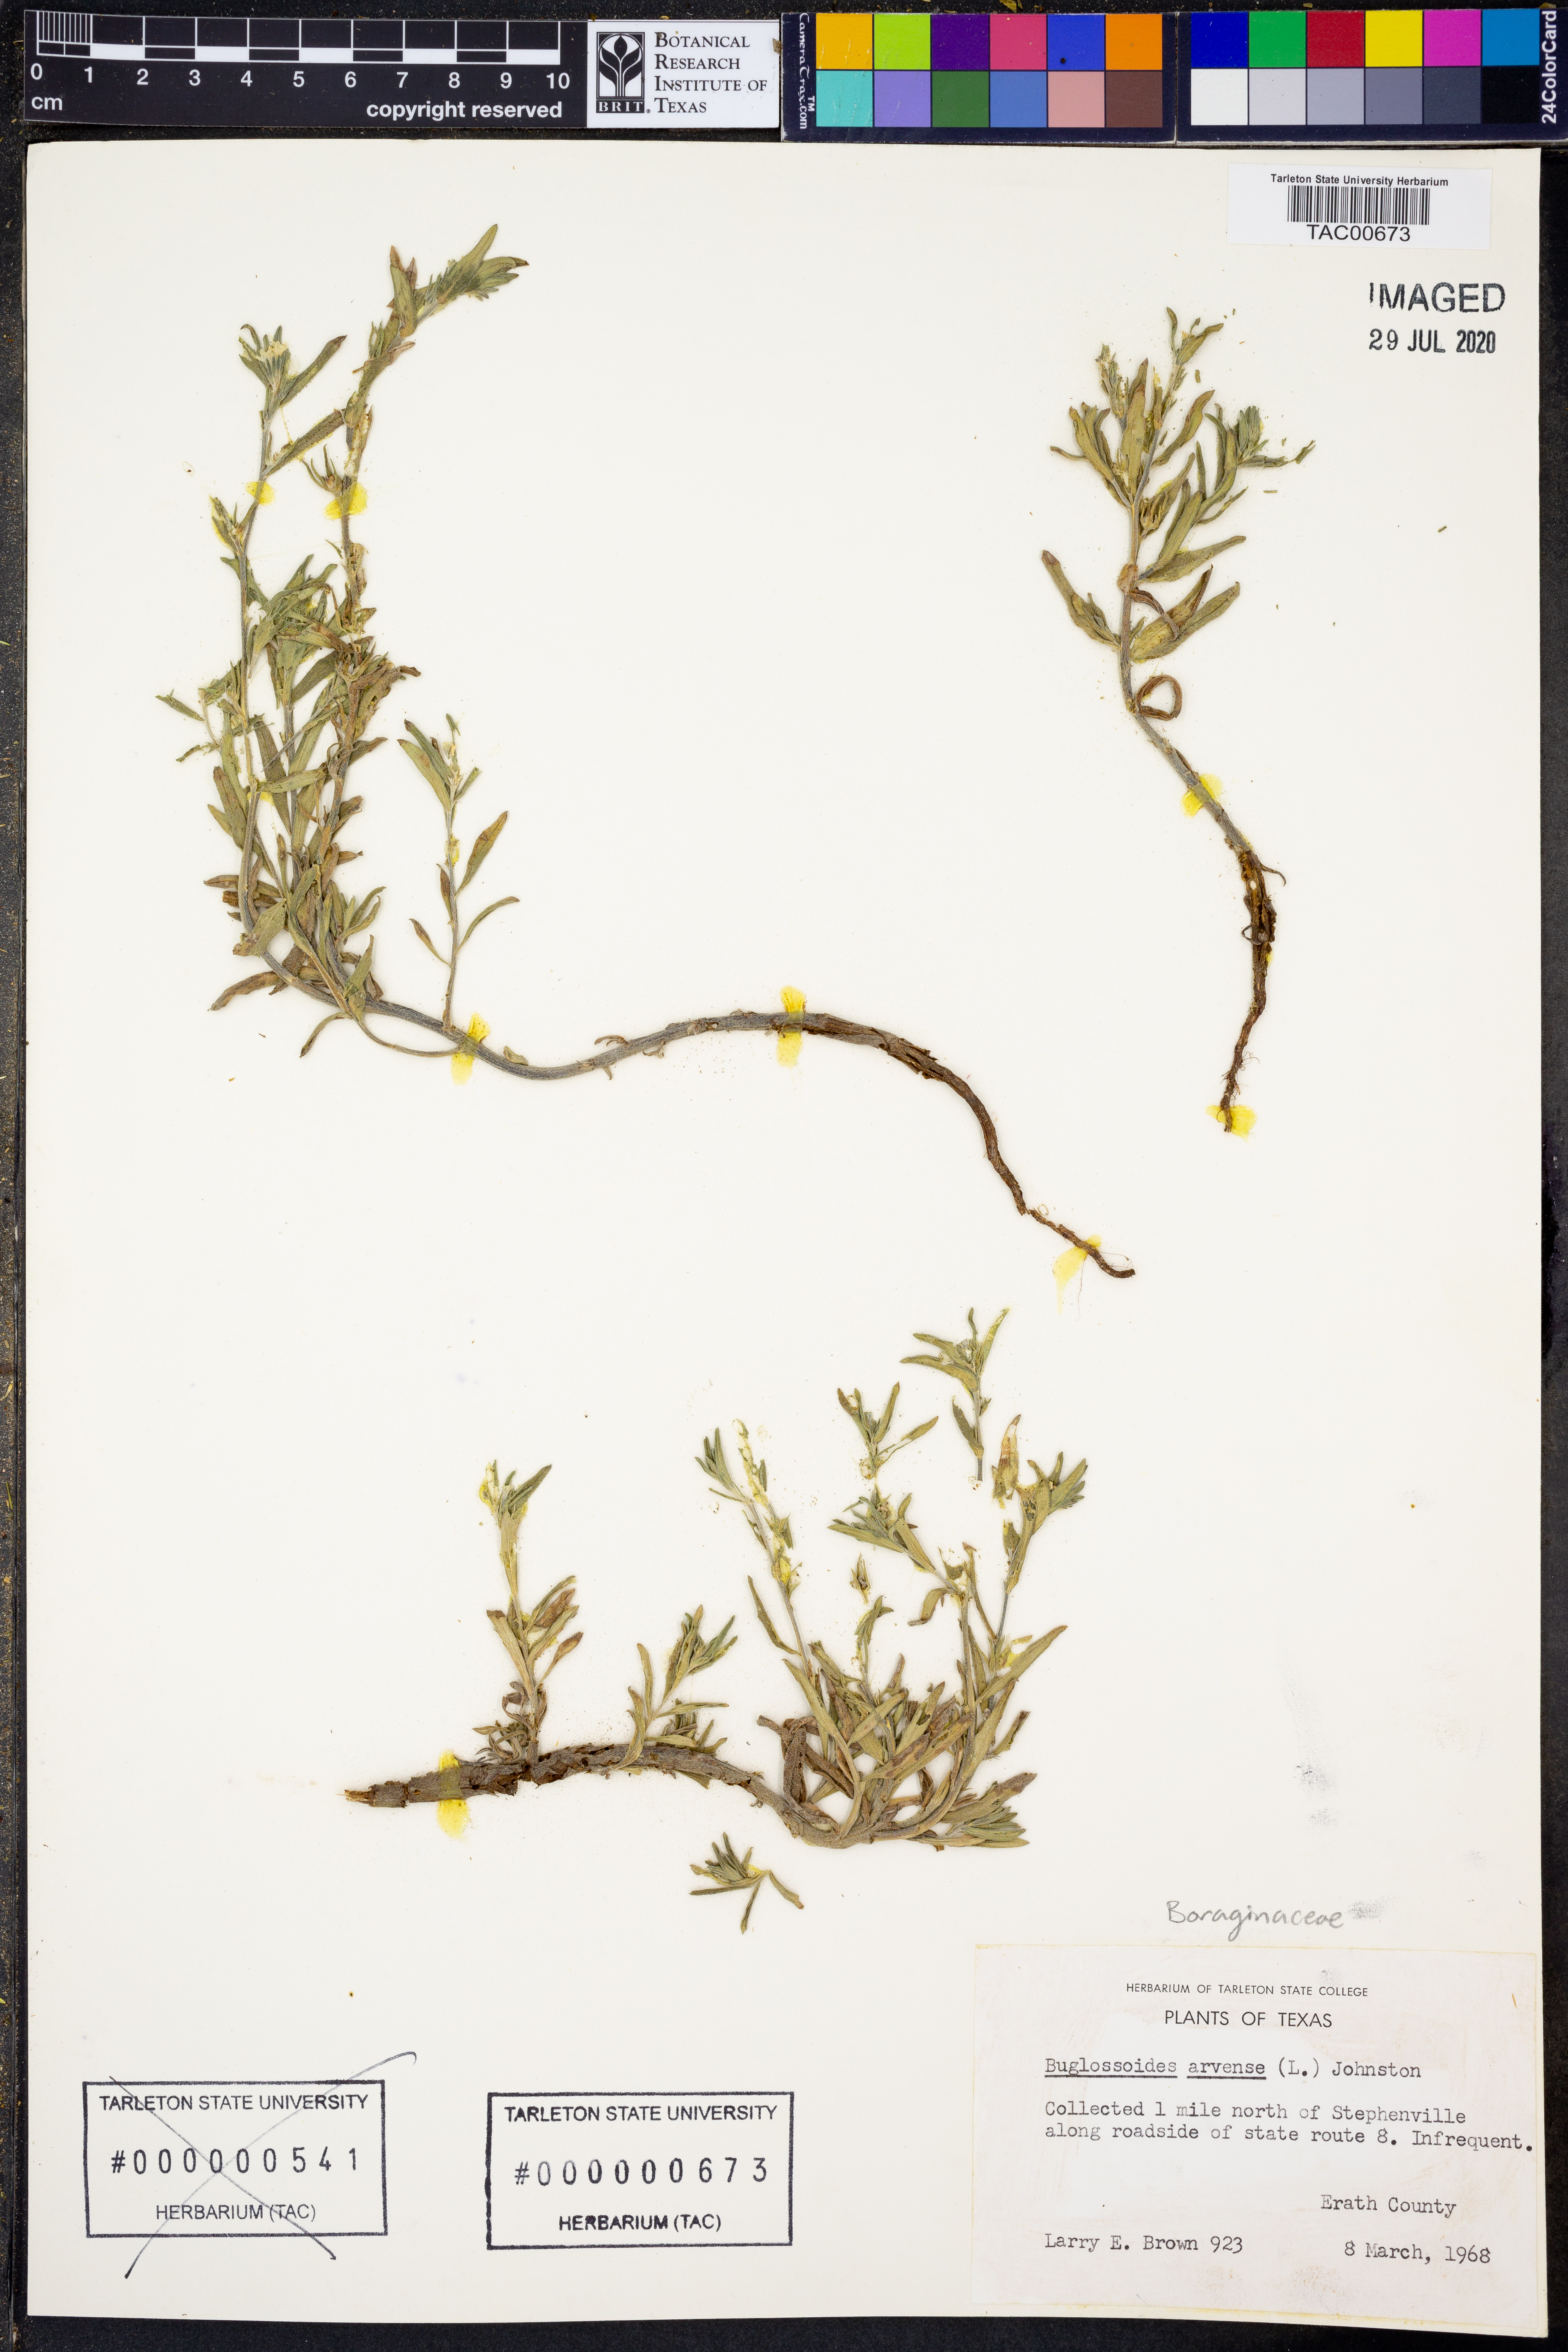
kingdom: Plantae
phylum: Tracheophyta
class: Magnoliopsida
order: Boraginales
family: Boraginaceae
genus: Buglossoides
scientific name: Buglossoides arvensis
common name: Corn gromwell
